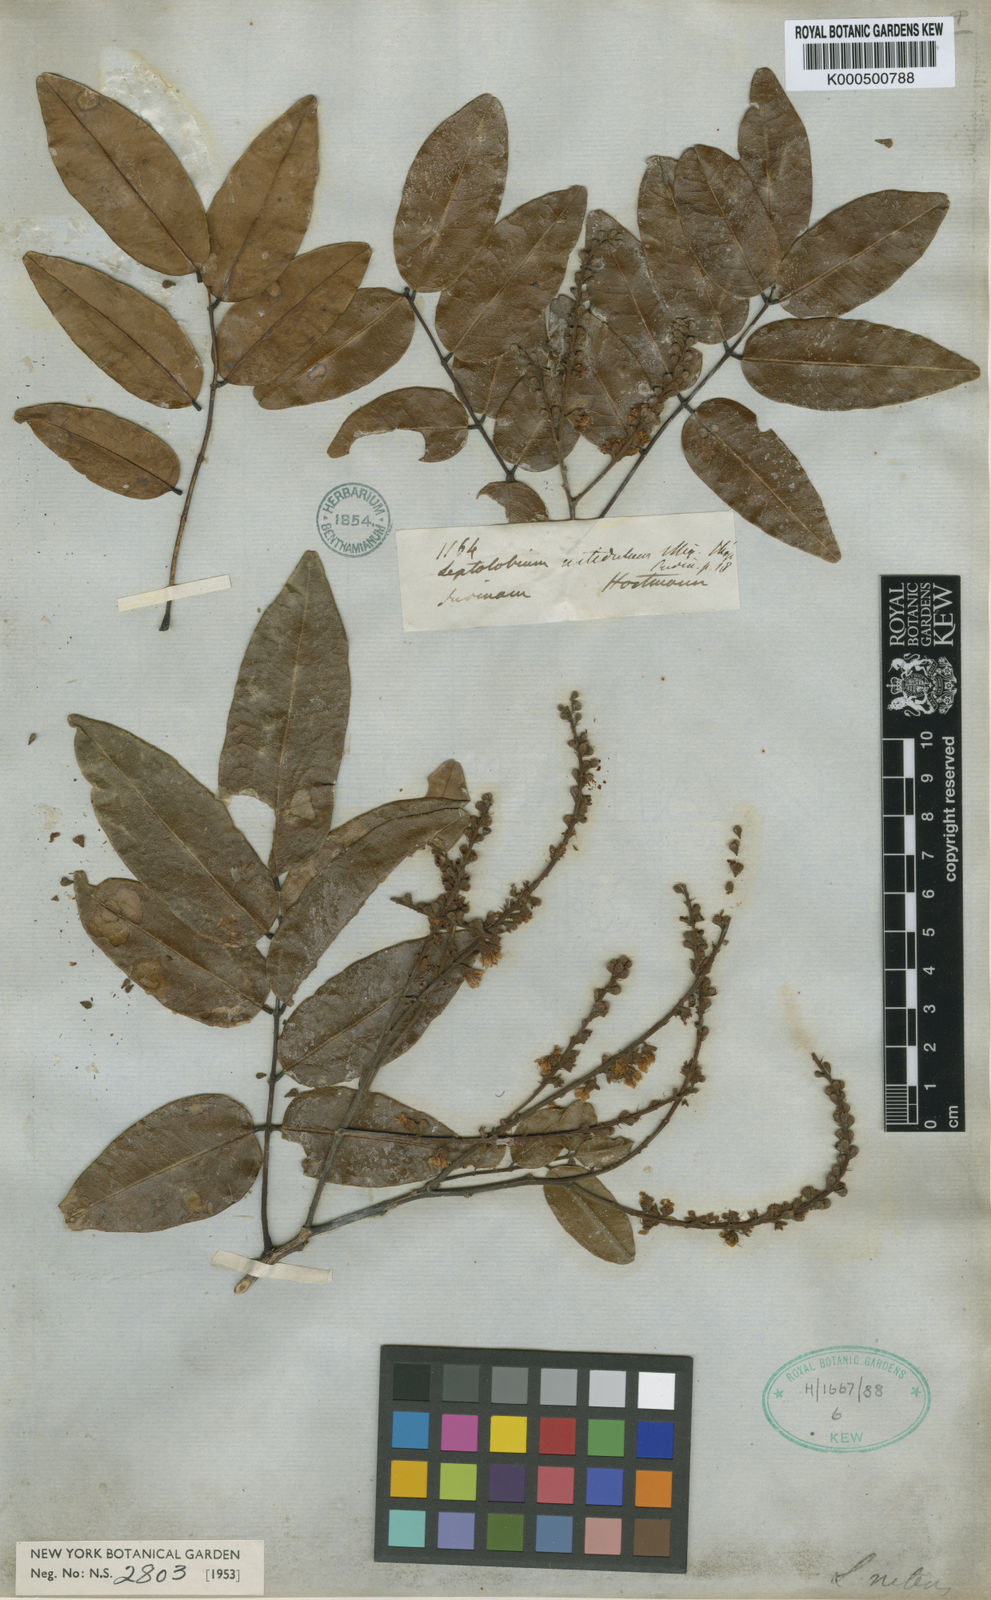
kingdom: Plantae
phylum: Tracheophyta
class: Magnoliopsida
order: Fabales
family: Fabaceae
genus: Leptolobium
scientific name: Leptolobium nitens
